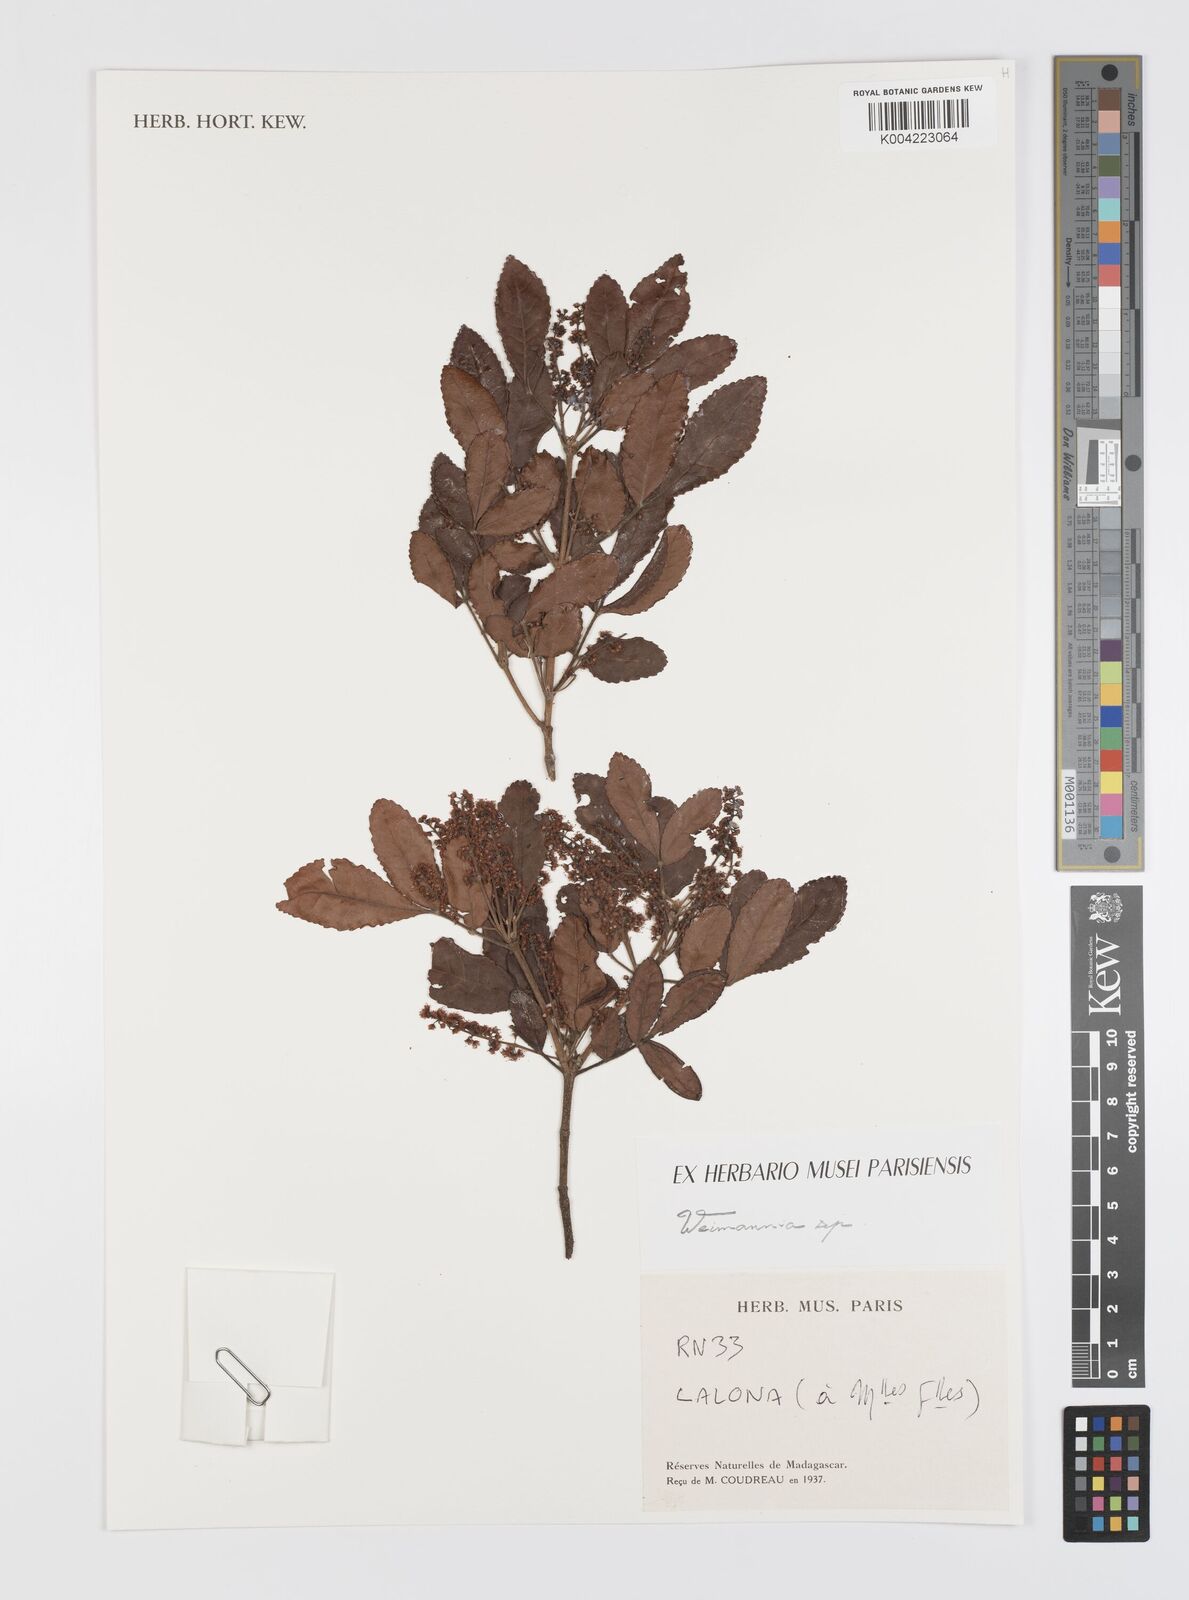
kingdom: Plantae
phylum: Tracheophyta
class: Magnoliopsida
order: Oxalidales
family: Cunoniaceae
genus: Weinmannia
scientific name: Weinmannia
